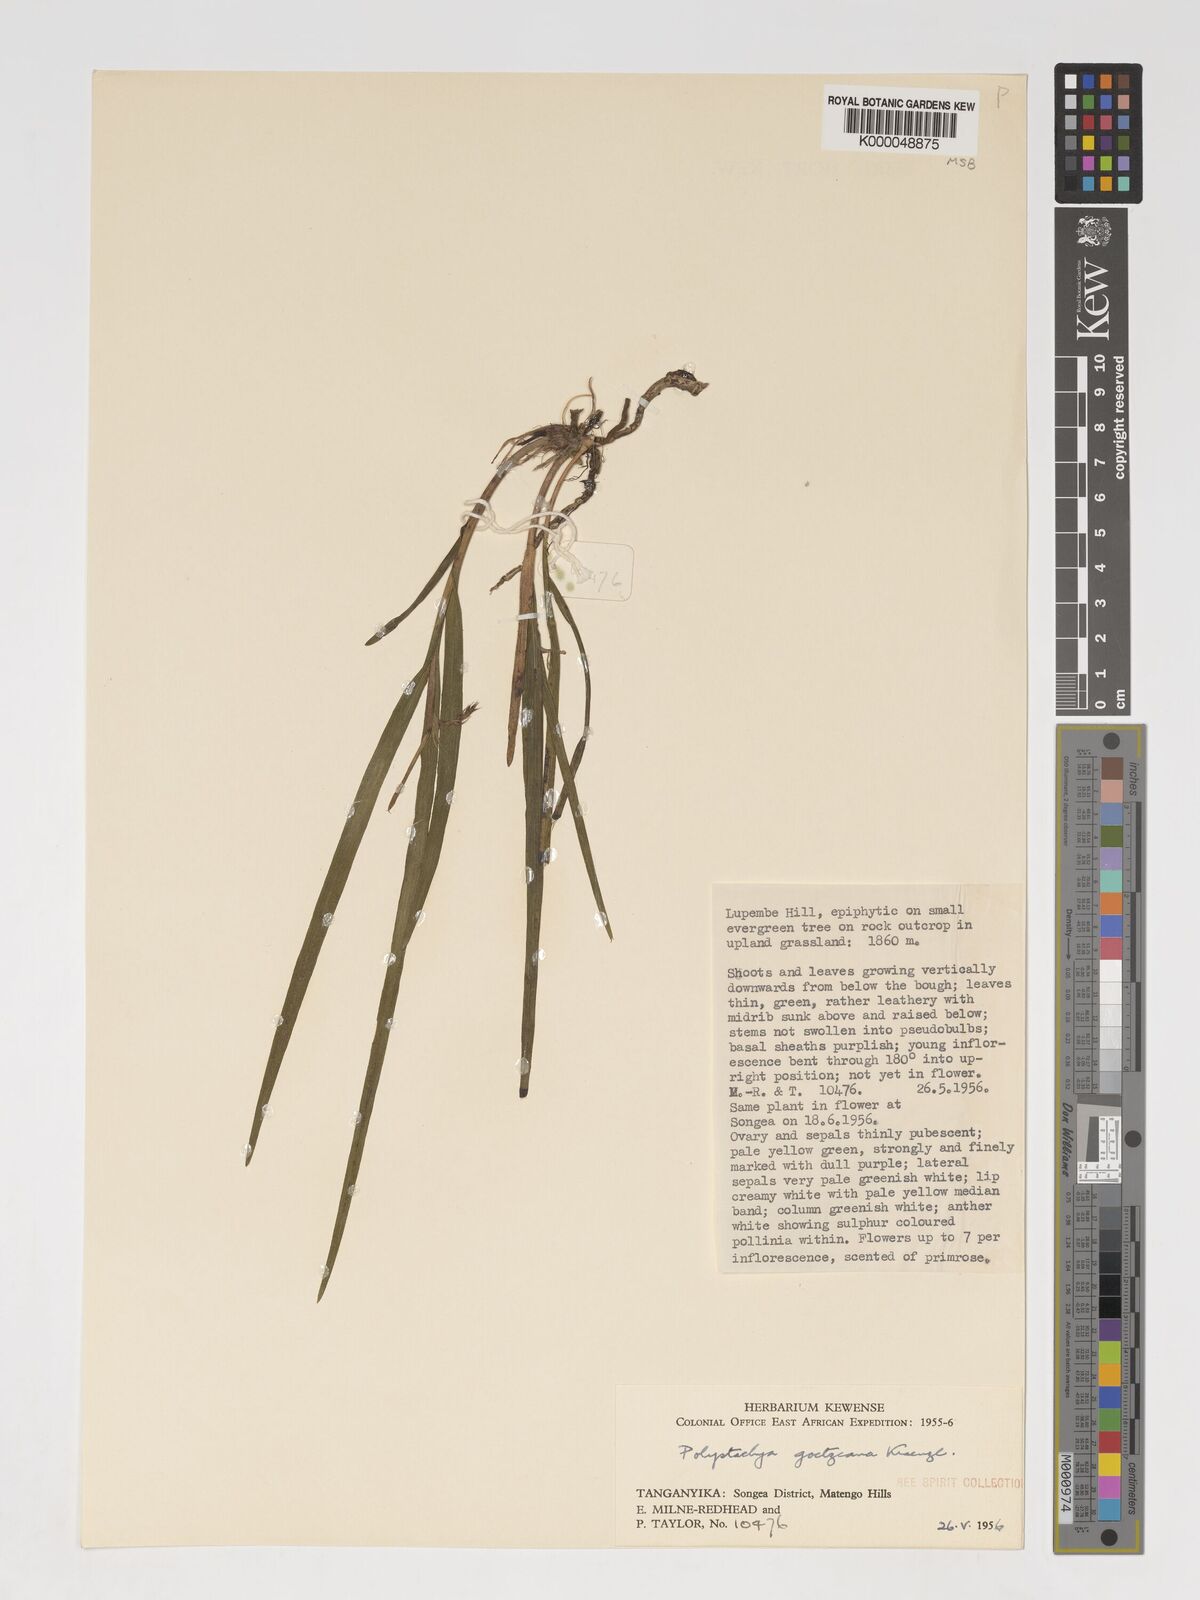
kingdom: Plantae
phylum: Tracheophyta
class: Liliopsida
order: Asparagales
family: Orchidaceae
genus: Polystachya
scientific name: Polystachya goetzeana
